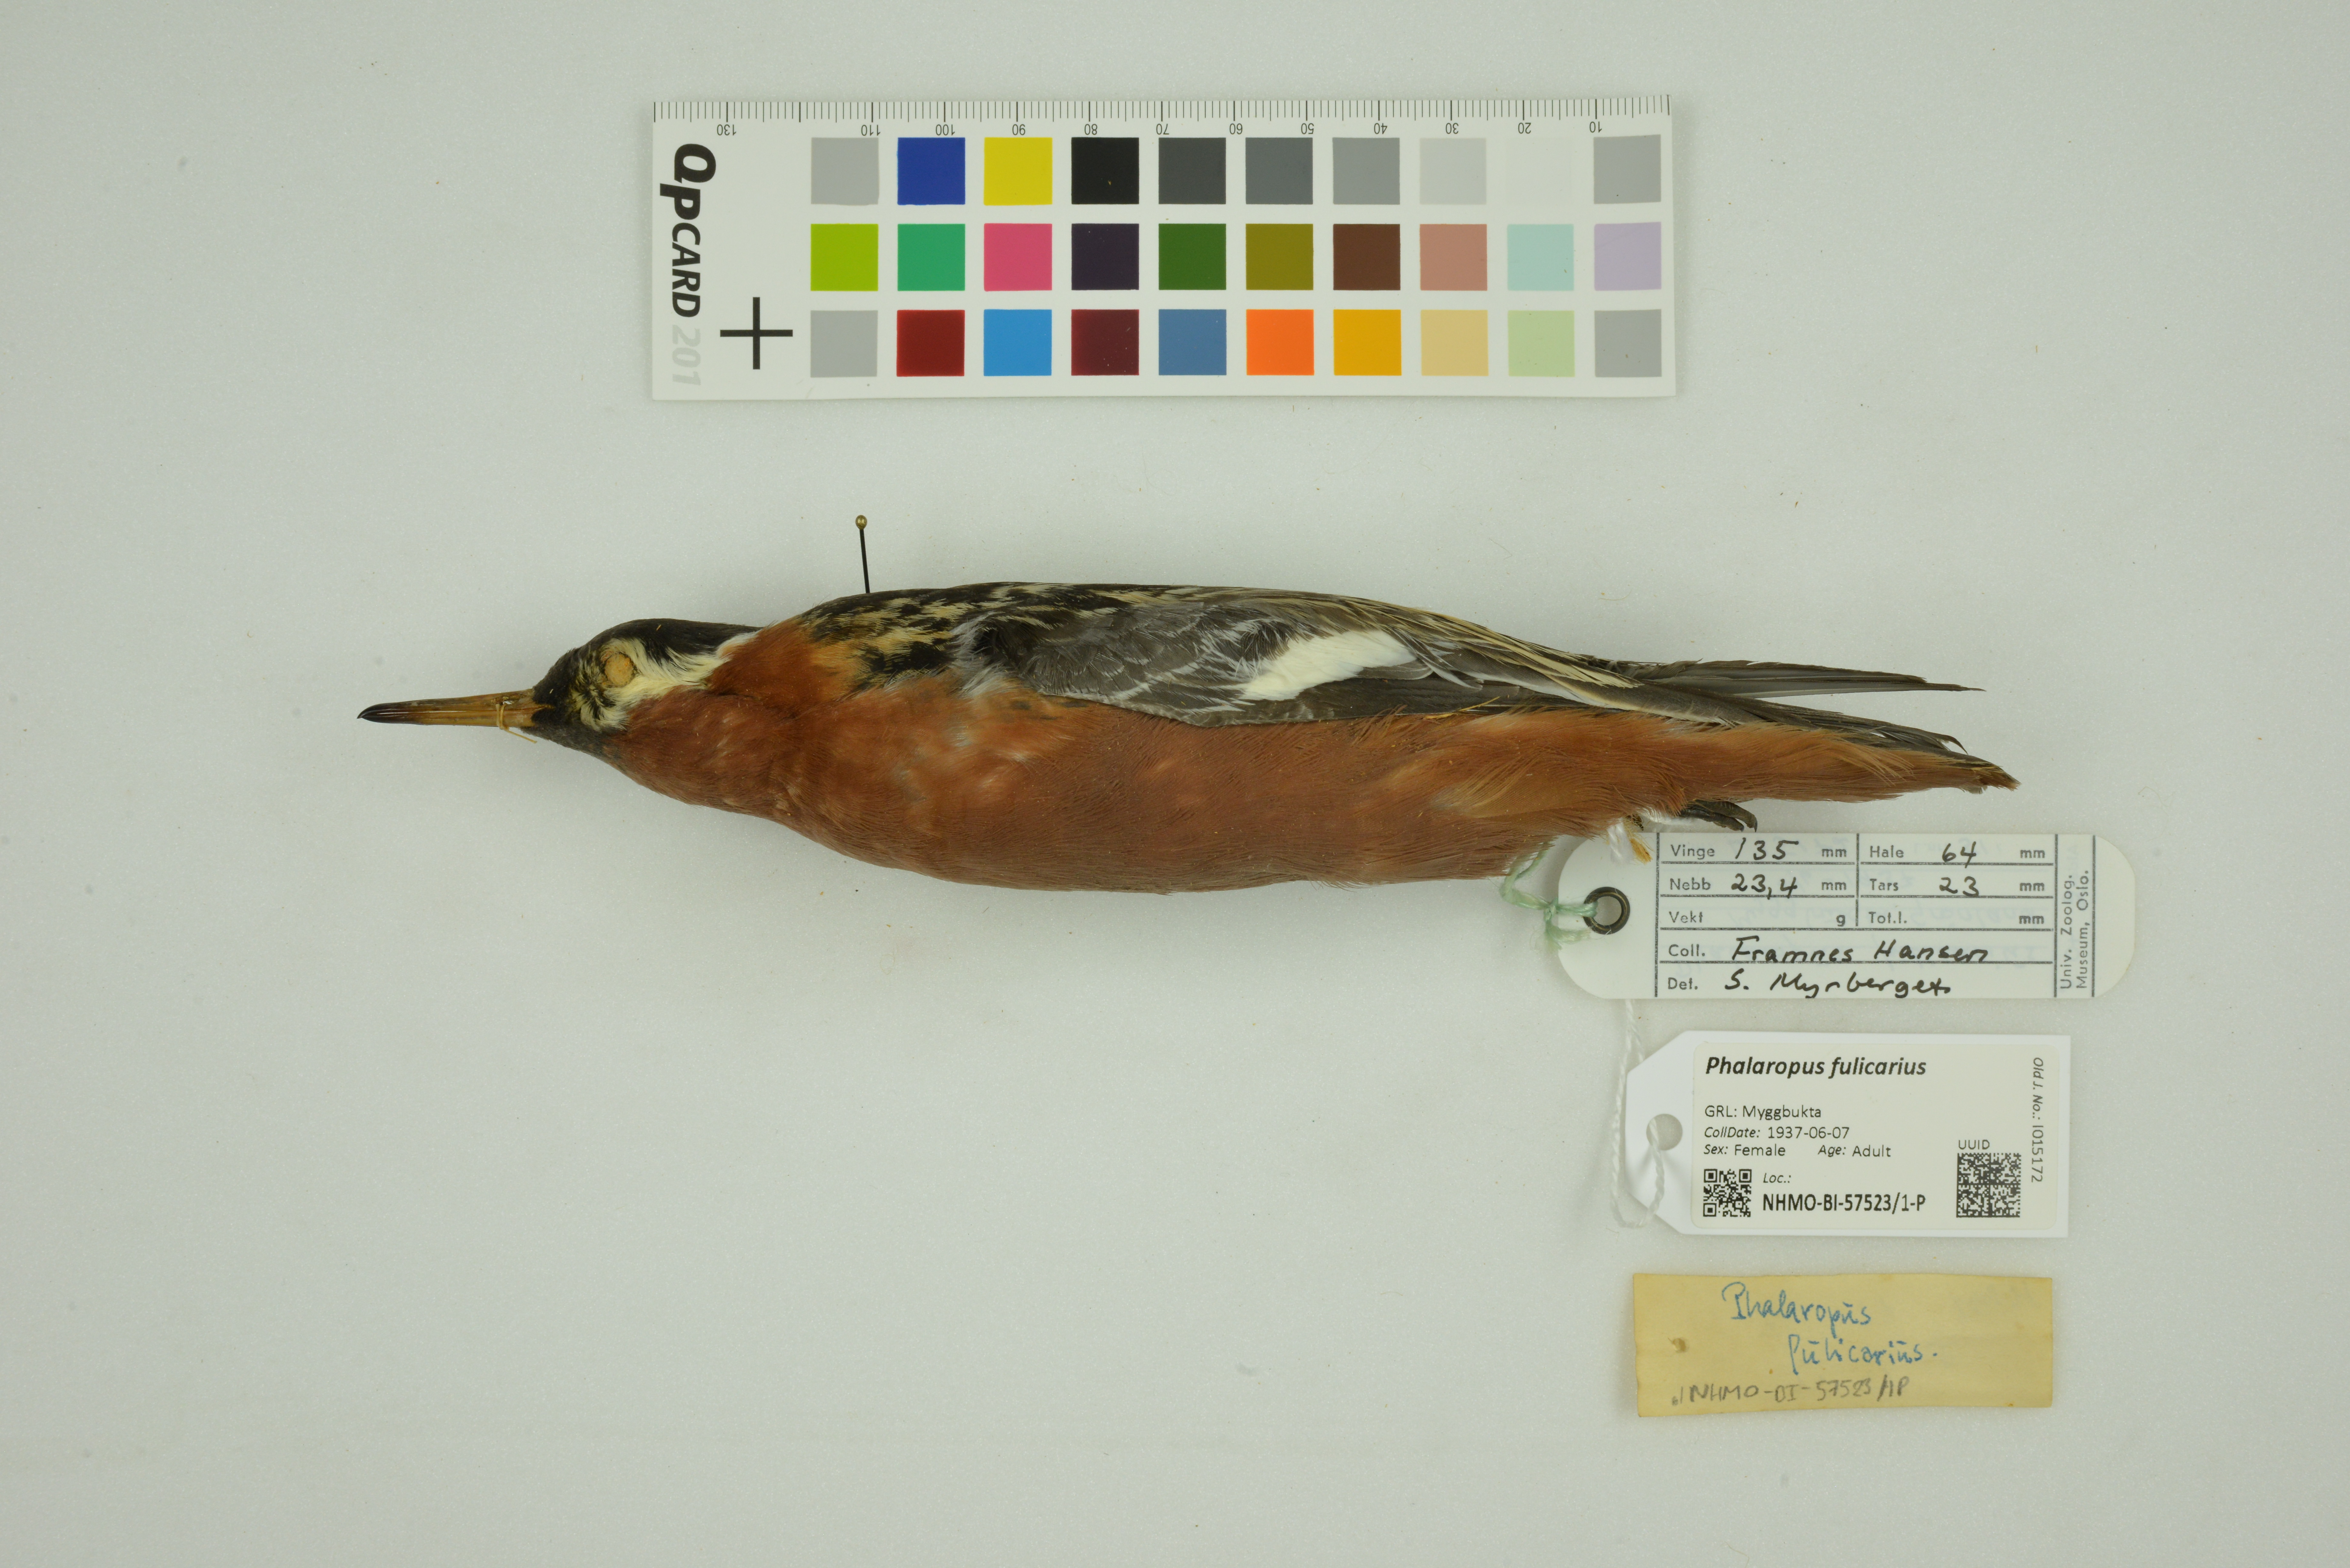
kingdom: Animalia
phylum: Chordata
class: Aves
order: Charadriiformes
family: Scolopacidae
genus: Phalaropus
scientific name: Phalaropus fulicarius
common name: Red phalarope
